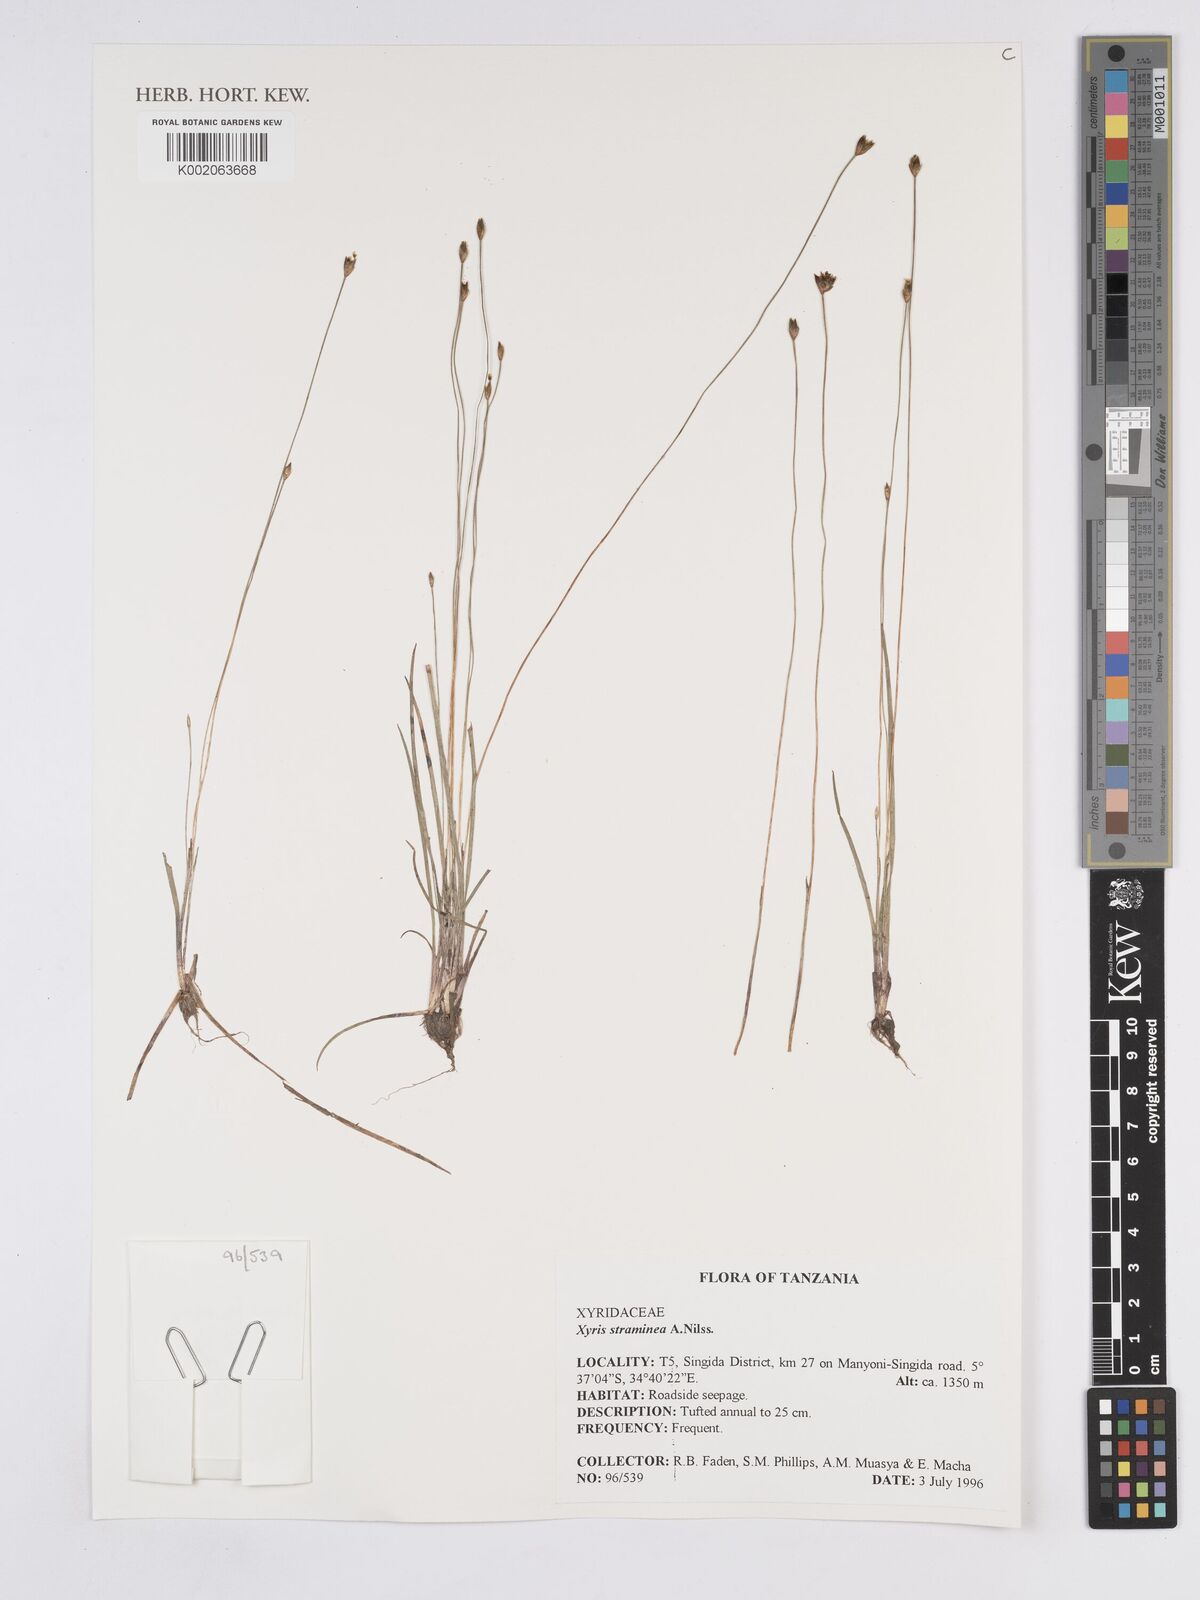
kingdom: Plantae
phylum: Tracheophyta
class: Liliopsida
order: Poales
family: Xyridaceae
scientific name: Xyridaceae
